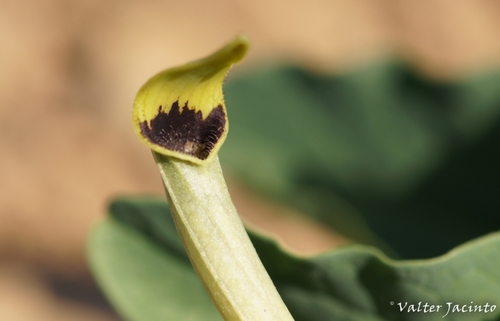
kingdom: Plantae
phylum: Tracheophyta
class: Magnoliopsida
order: Piperales
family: Aristolochiaceae
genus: Aristolochia
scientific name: Aristolochia paucinervis
